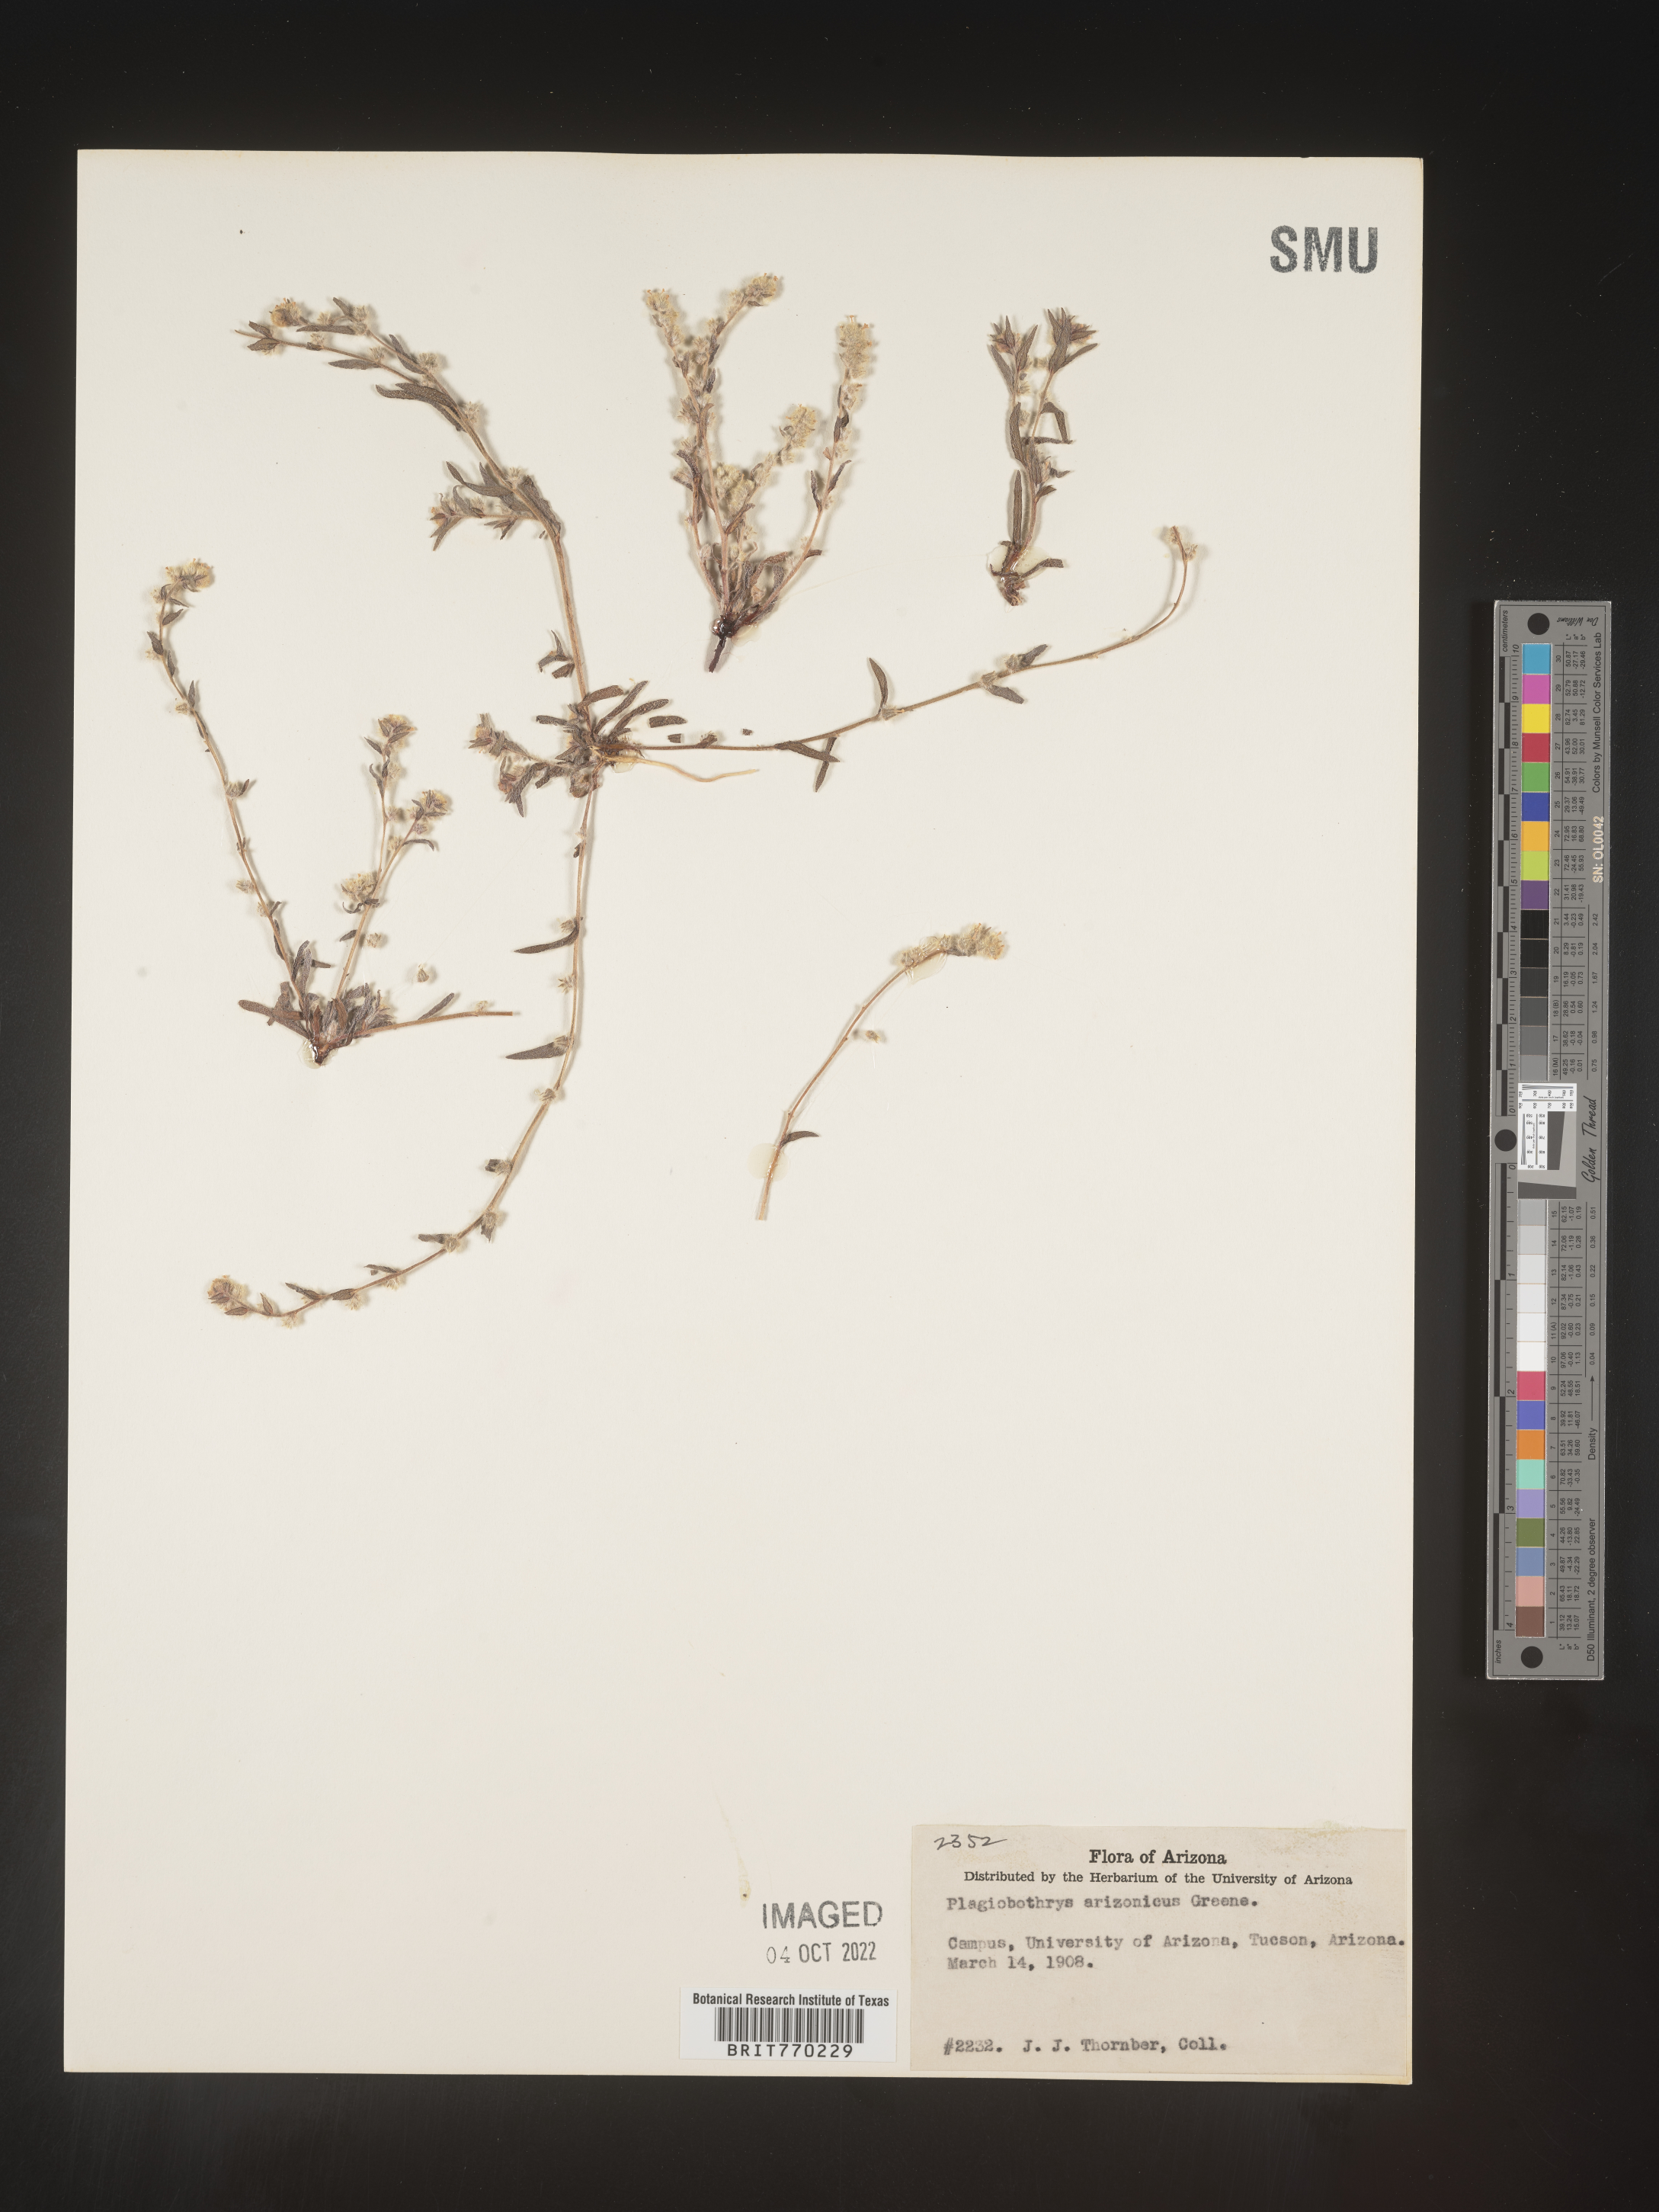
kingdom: Plantae
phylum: Tracheophyta
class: Magnoliopsida
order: Boraginales
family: Boraginaceae
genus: Plagiobothrys
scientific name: Plagiobothrys
